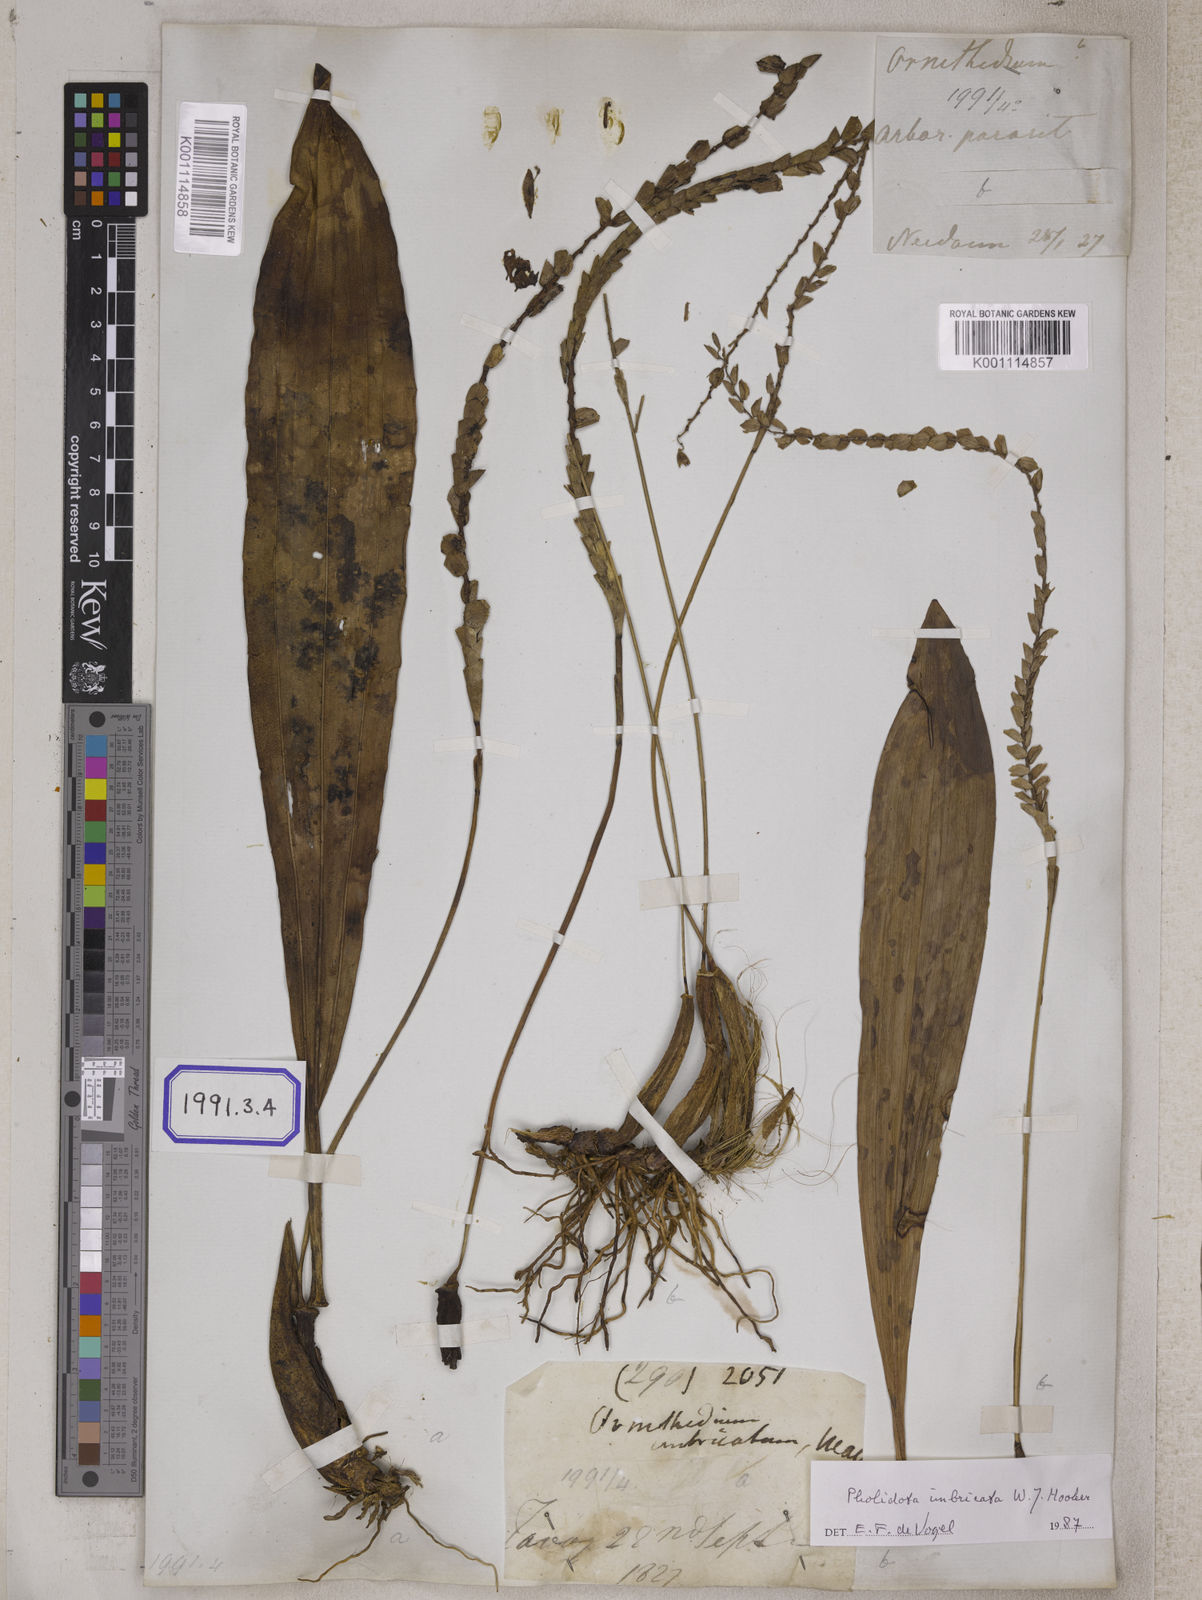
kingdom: Plantae
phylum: Tracheophyta
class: Liliopsida
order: Asparagales
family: Orchidaceae
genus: Pholidota
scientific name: Pholidota
